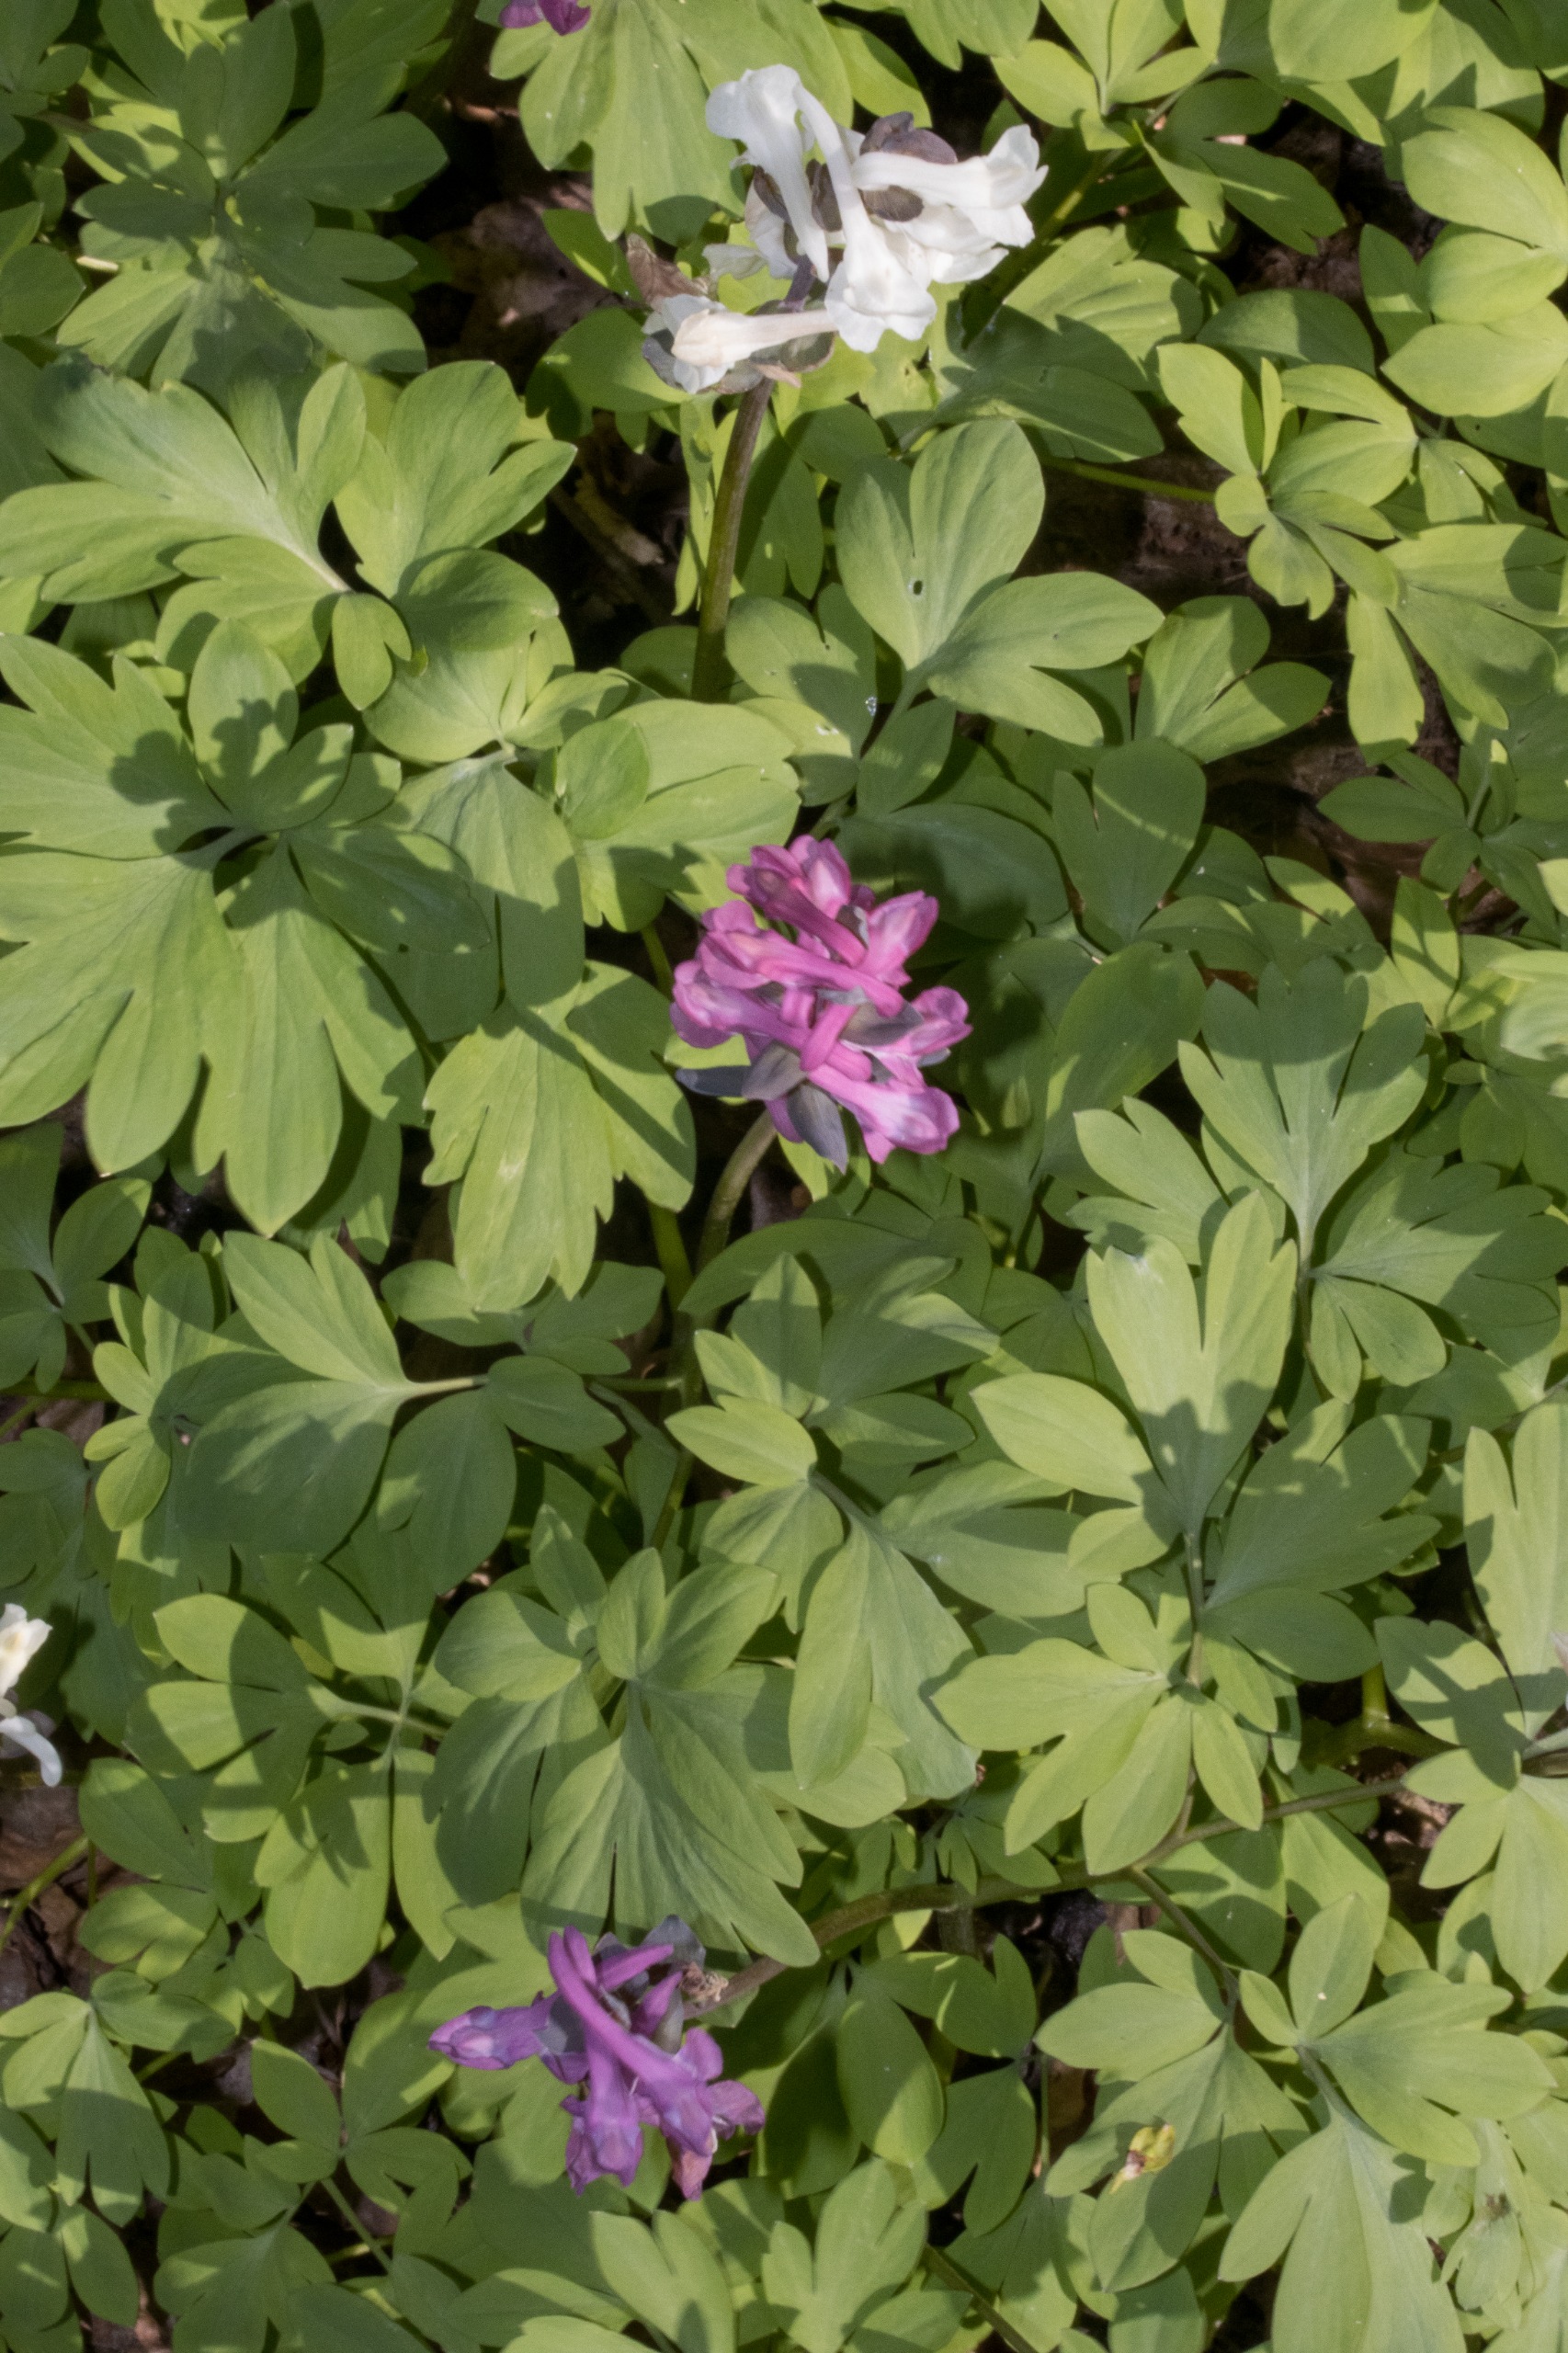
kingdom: Plantae
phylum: Tracheophyta
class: Magnoliopsida
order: Ranunculales
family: Papaveraceae
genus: Corydalis
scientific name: Corydalis cava
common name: Hulrodet lærkespore
